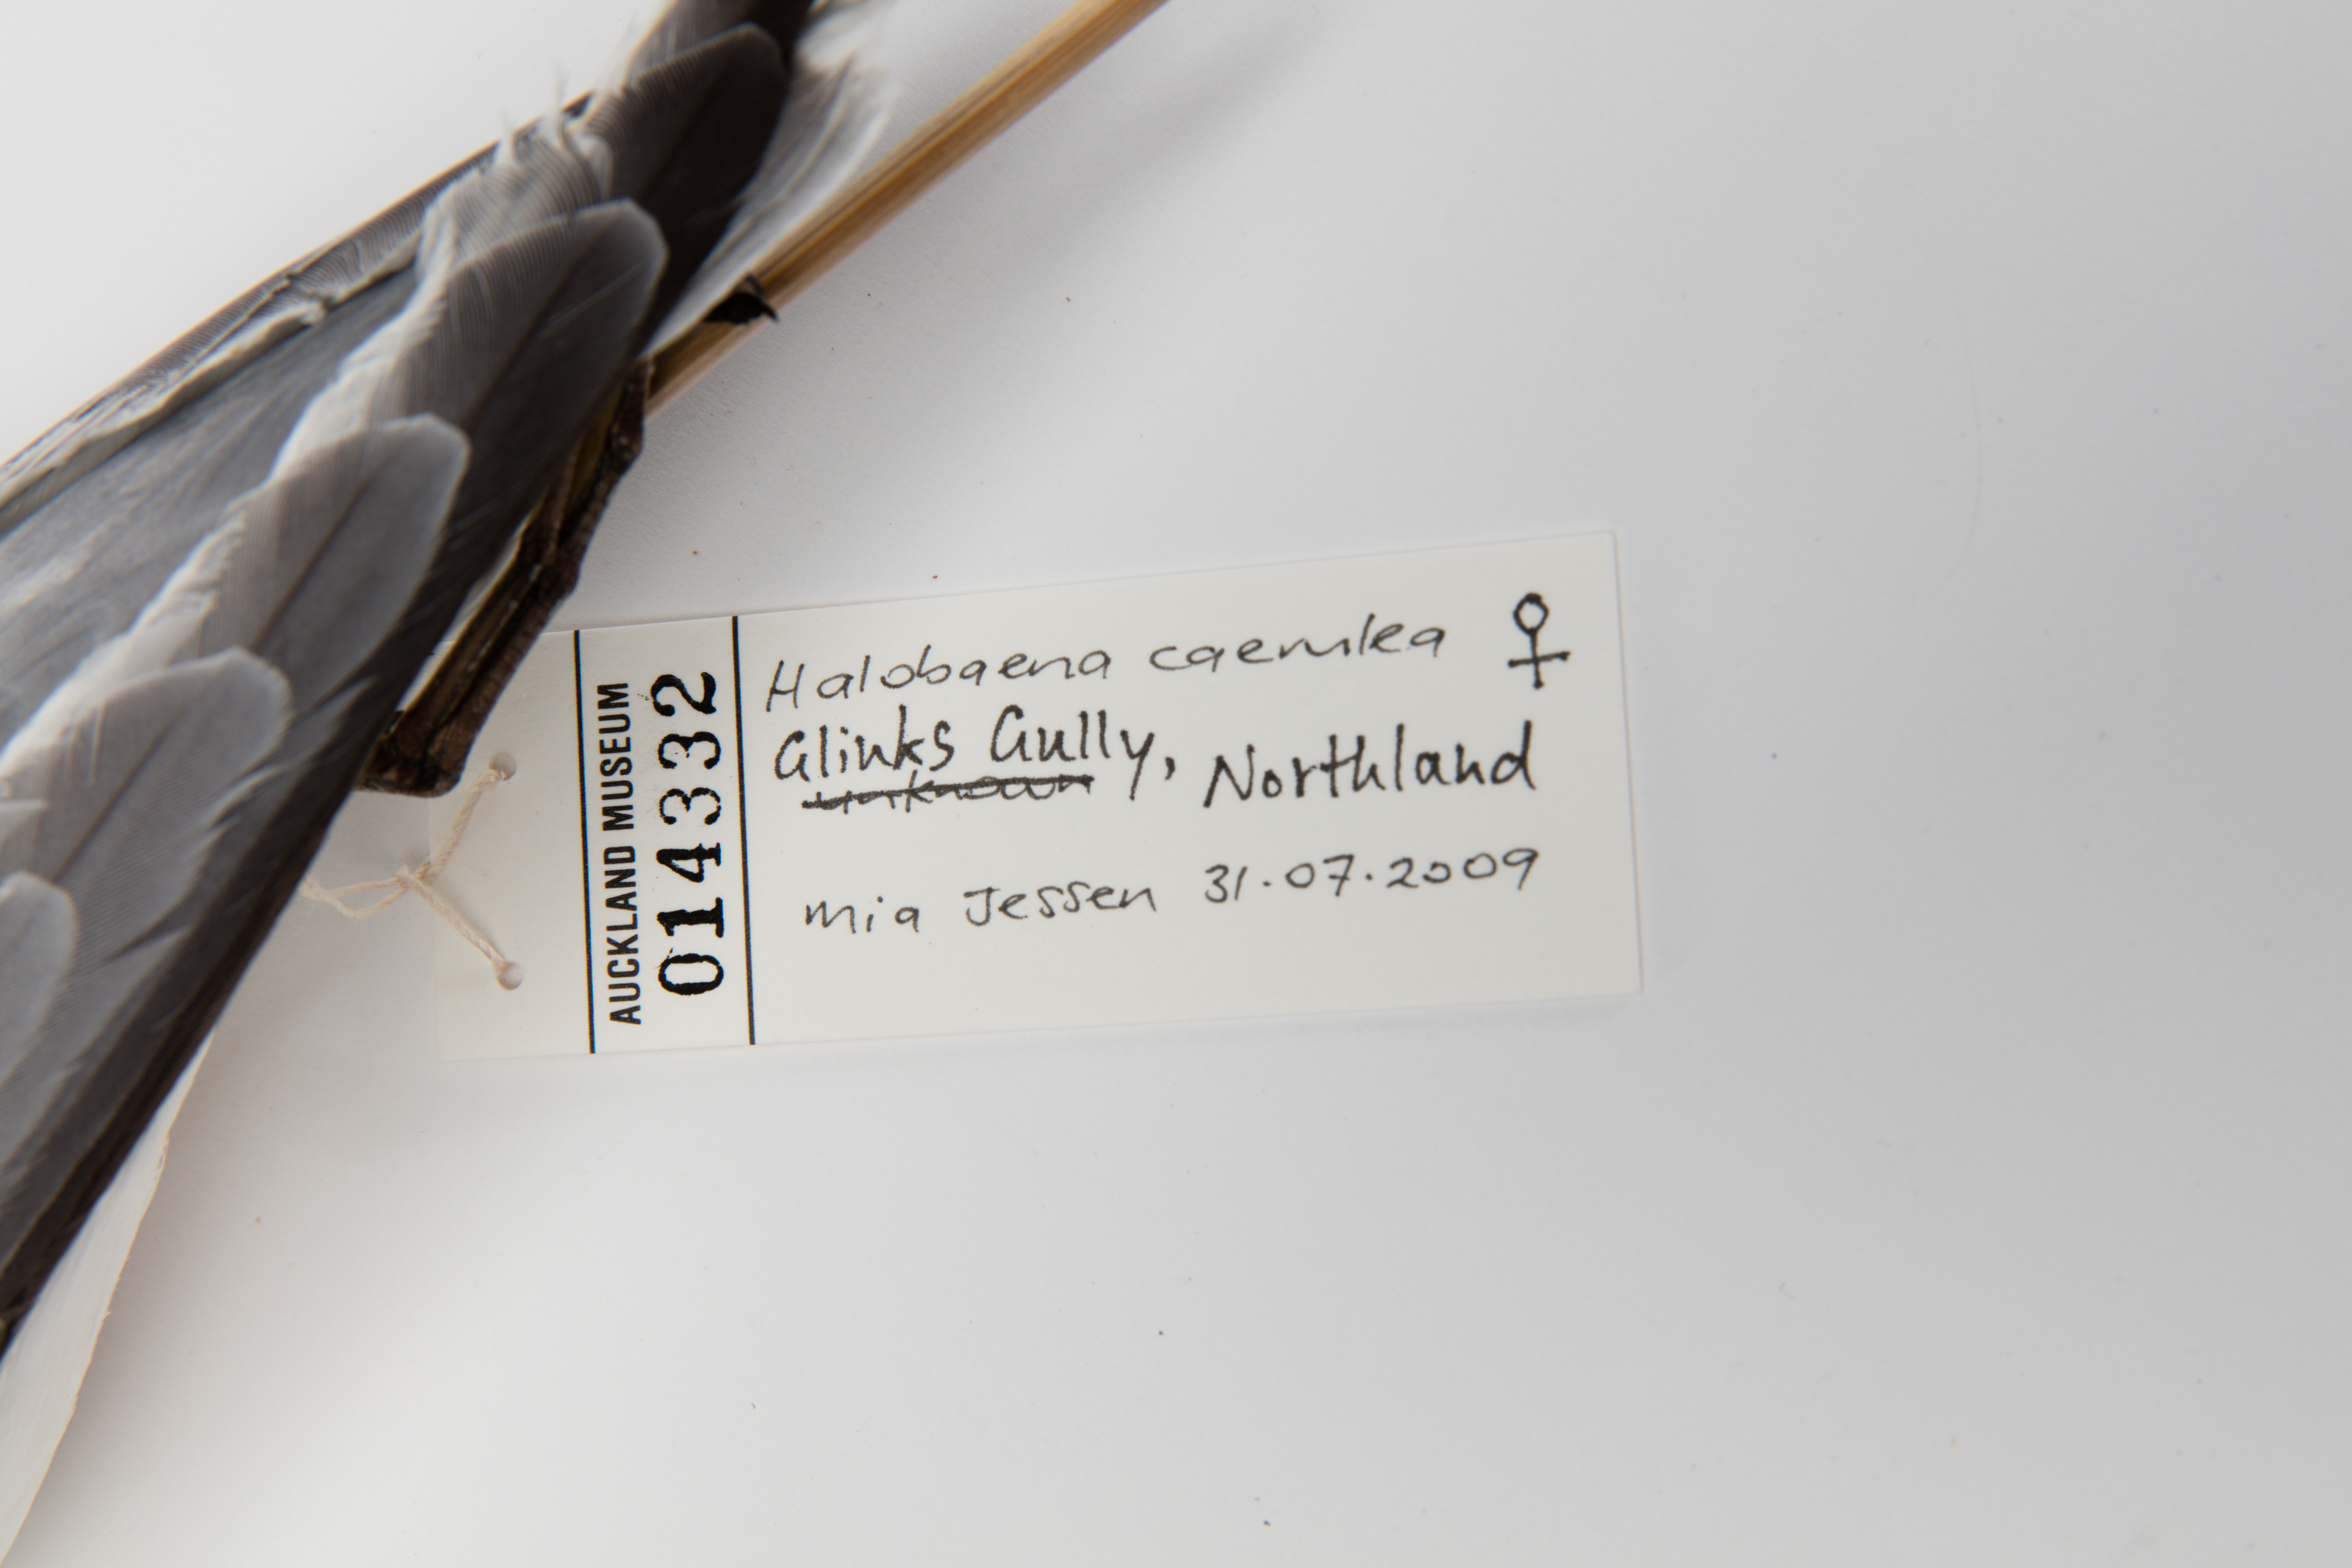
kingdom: Animalia
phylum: Chordata
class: Aves
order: Procellariiformes
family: Procellariidae
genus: Halobaena
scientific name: Halobaena caerulea
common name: Blue petrel
